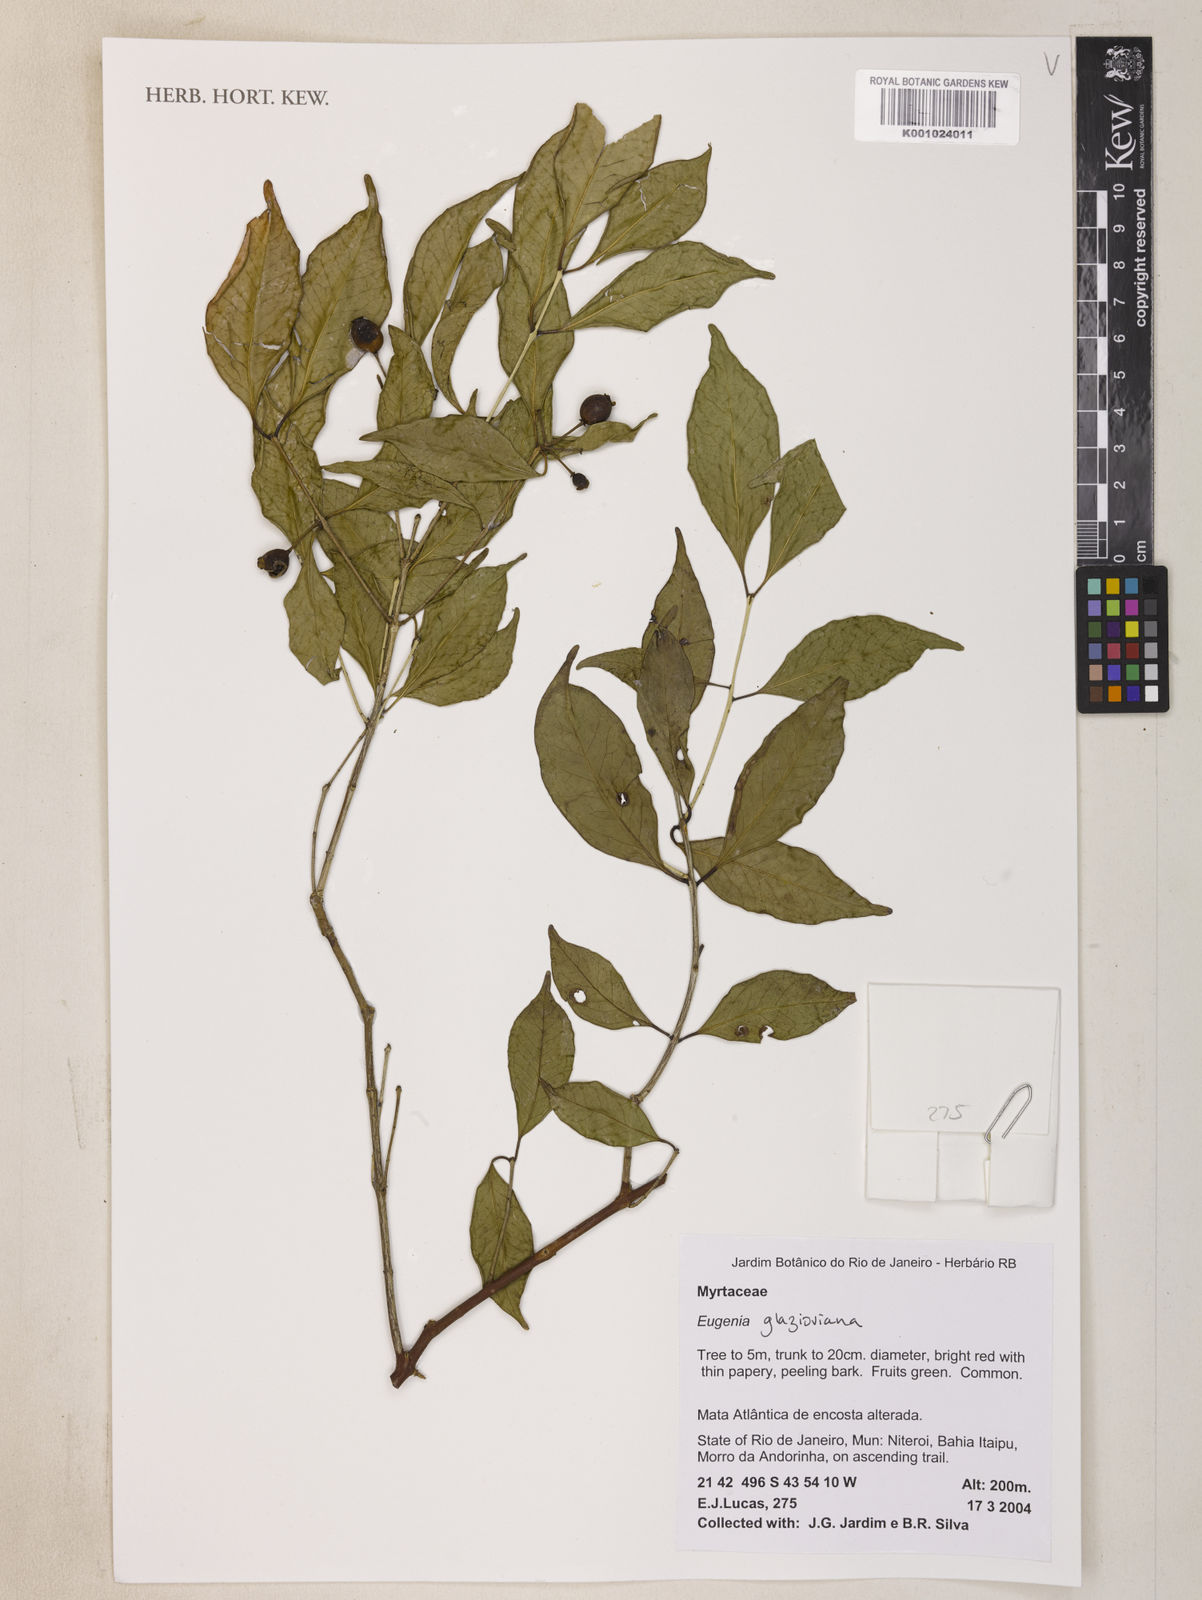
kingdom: Plantae
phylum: Tracheophyta
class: Magnoliopsida
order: Myrtales
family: Myrtaceae
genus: Eugenia
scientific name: Eugenia francavilleana
